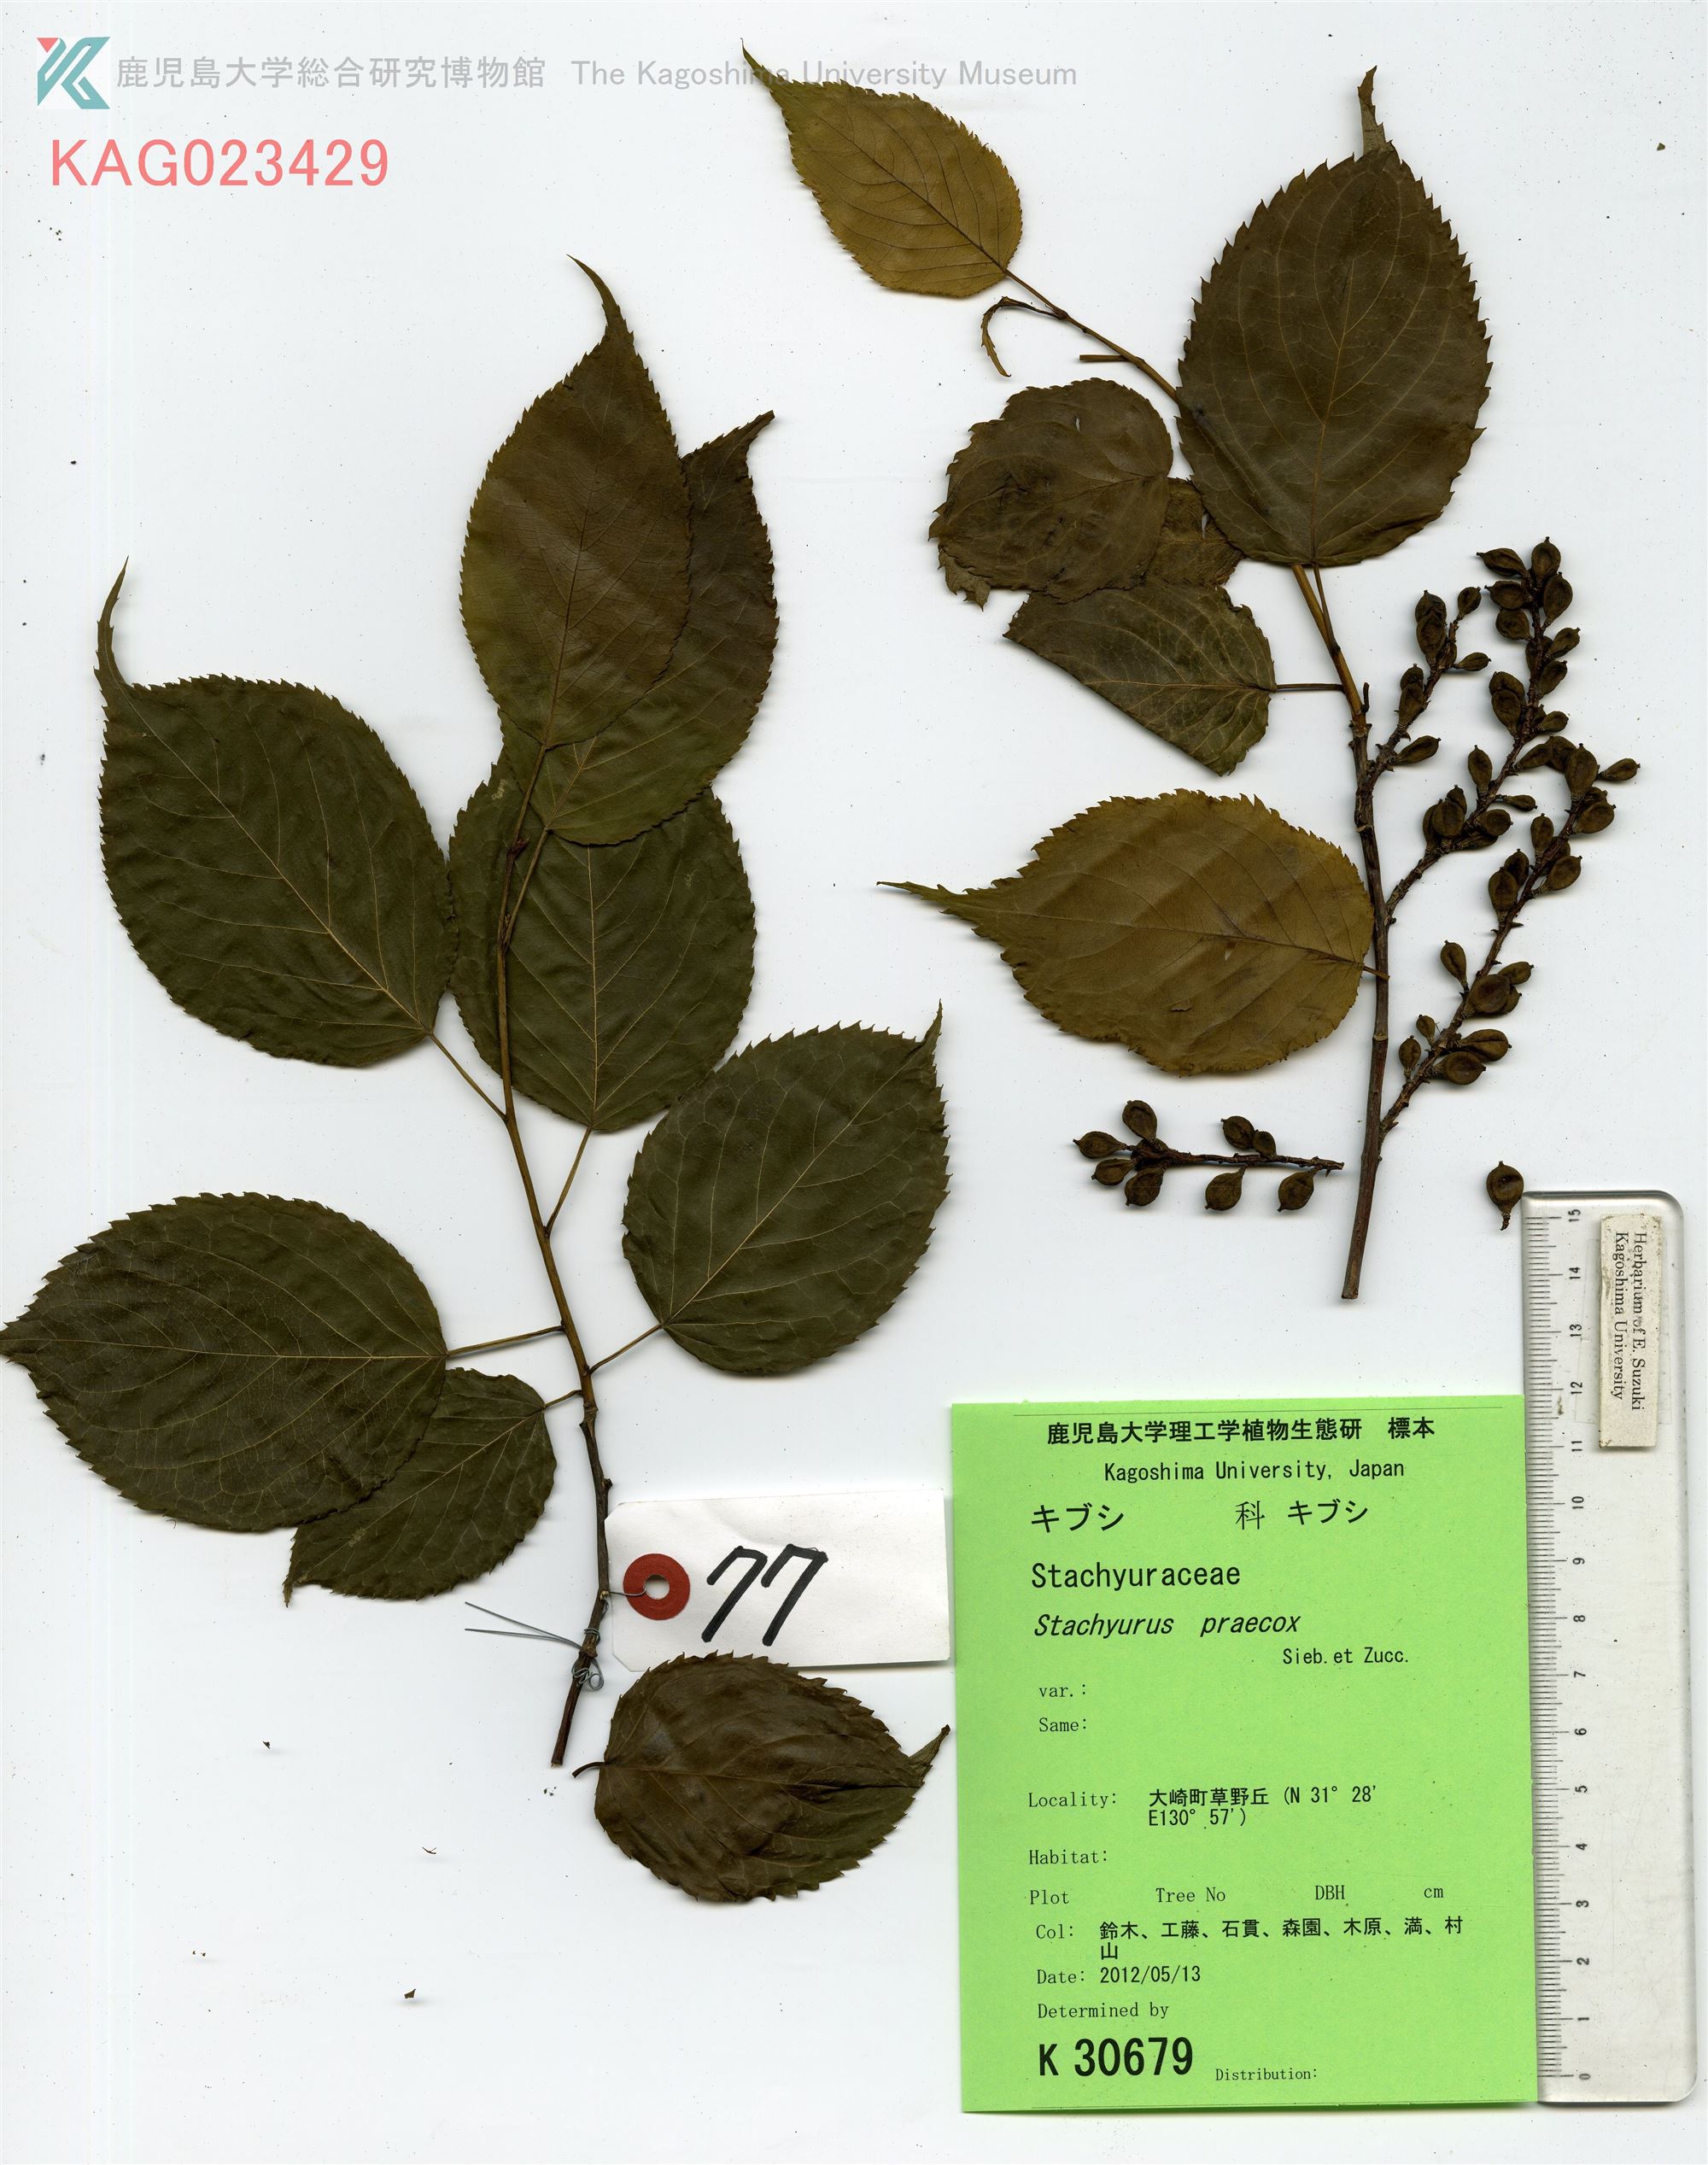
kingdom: Plantae
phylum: Tracheophyta
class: Magnoliopsida
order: Crossosomatales
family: Stachyuraceae
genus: Stachyurus
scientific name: Stachyurus praecox
